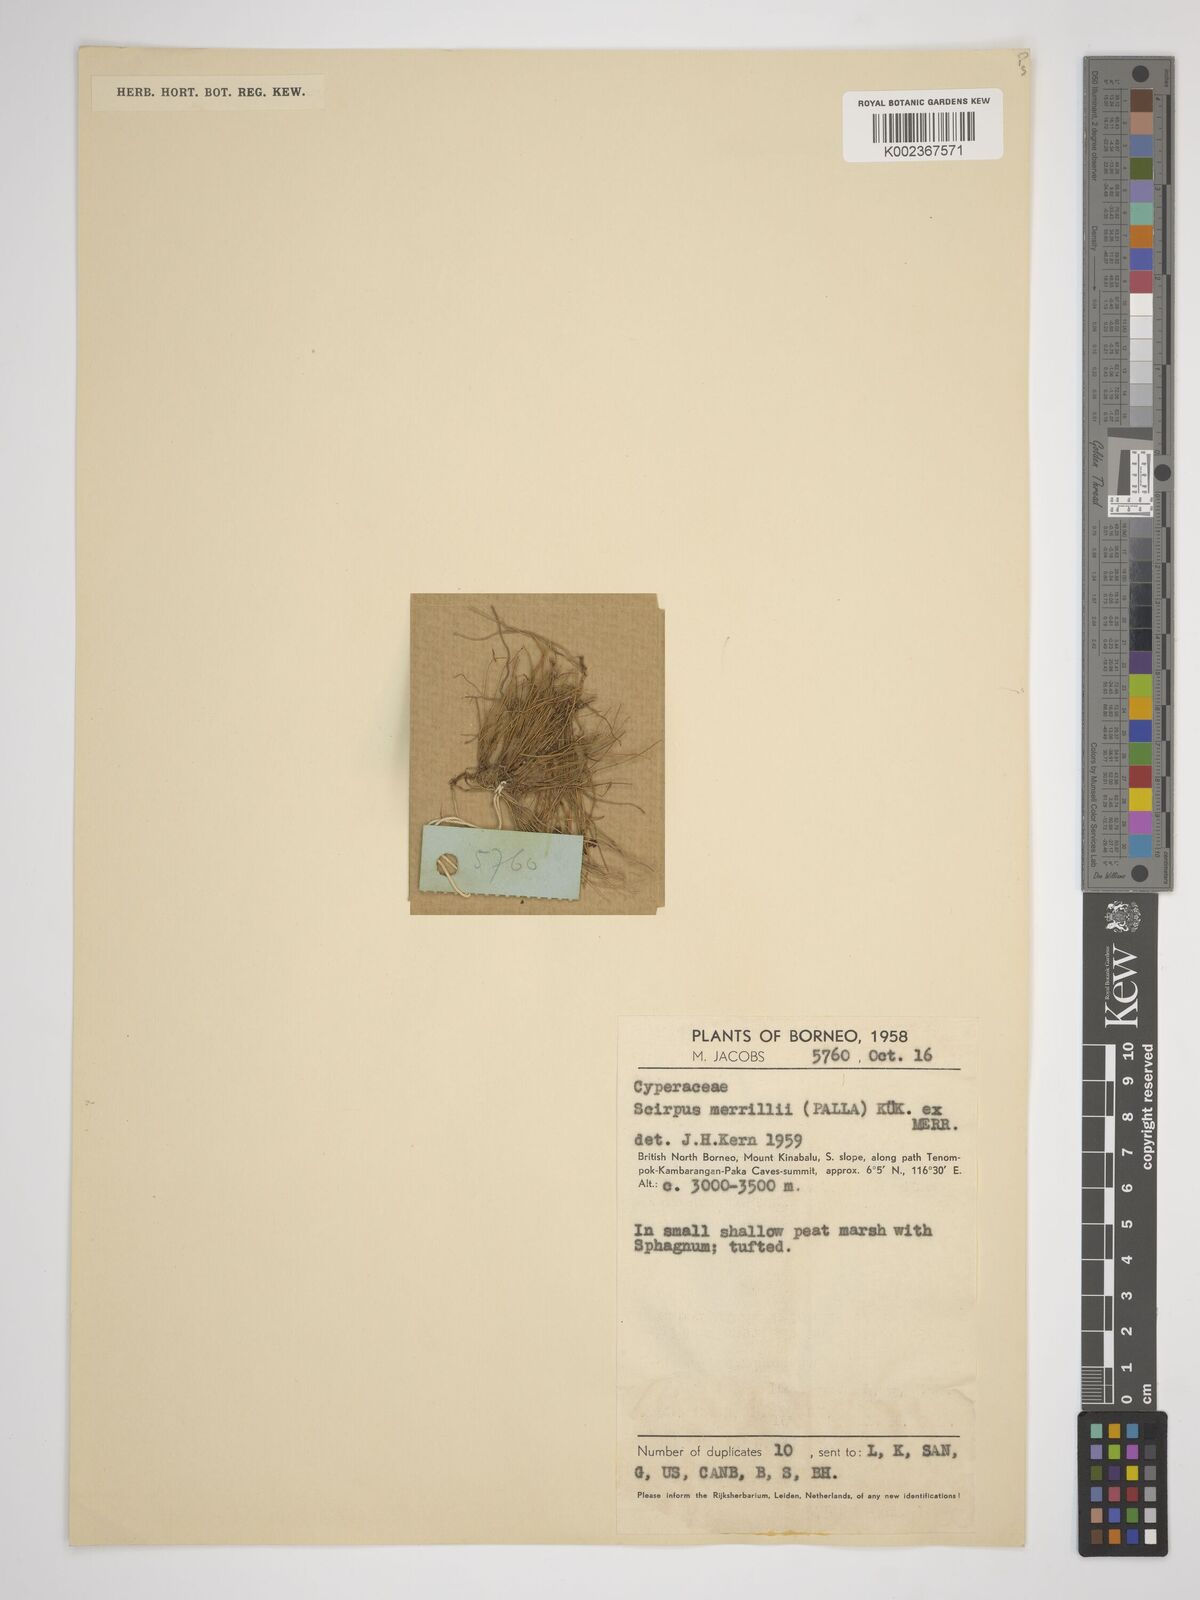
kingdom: Plantae
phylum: Tracheophyta
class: Liliopsida
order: Poales
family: Cyperaceae
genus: Isolepis
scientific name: Isolepis subtilissima
